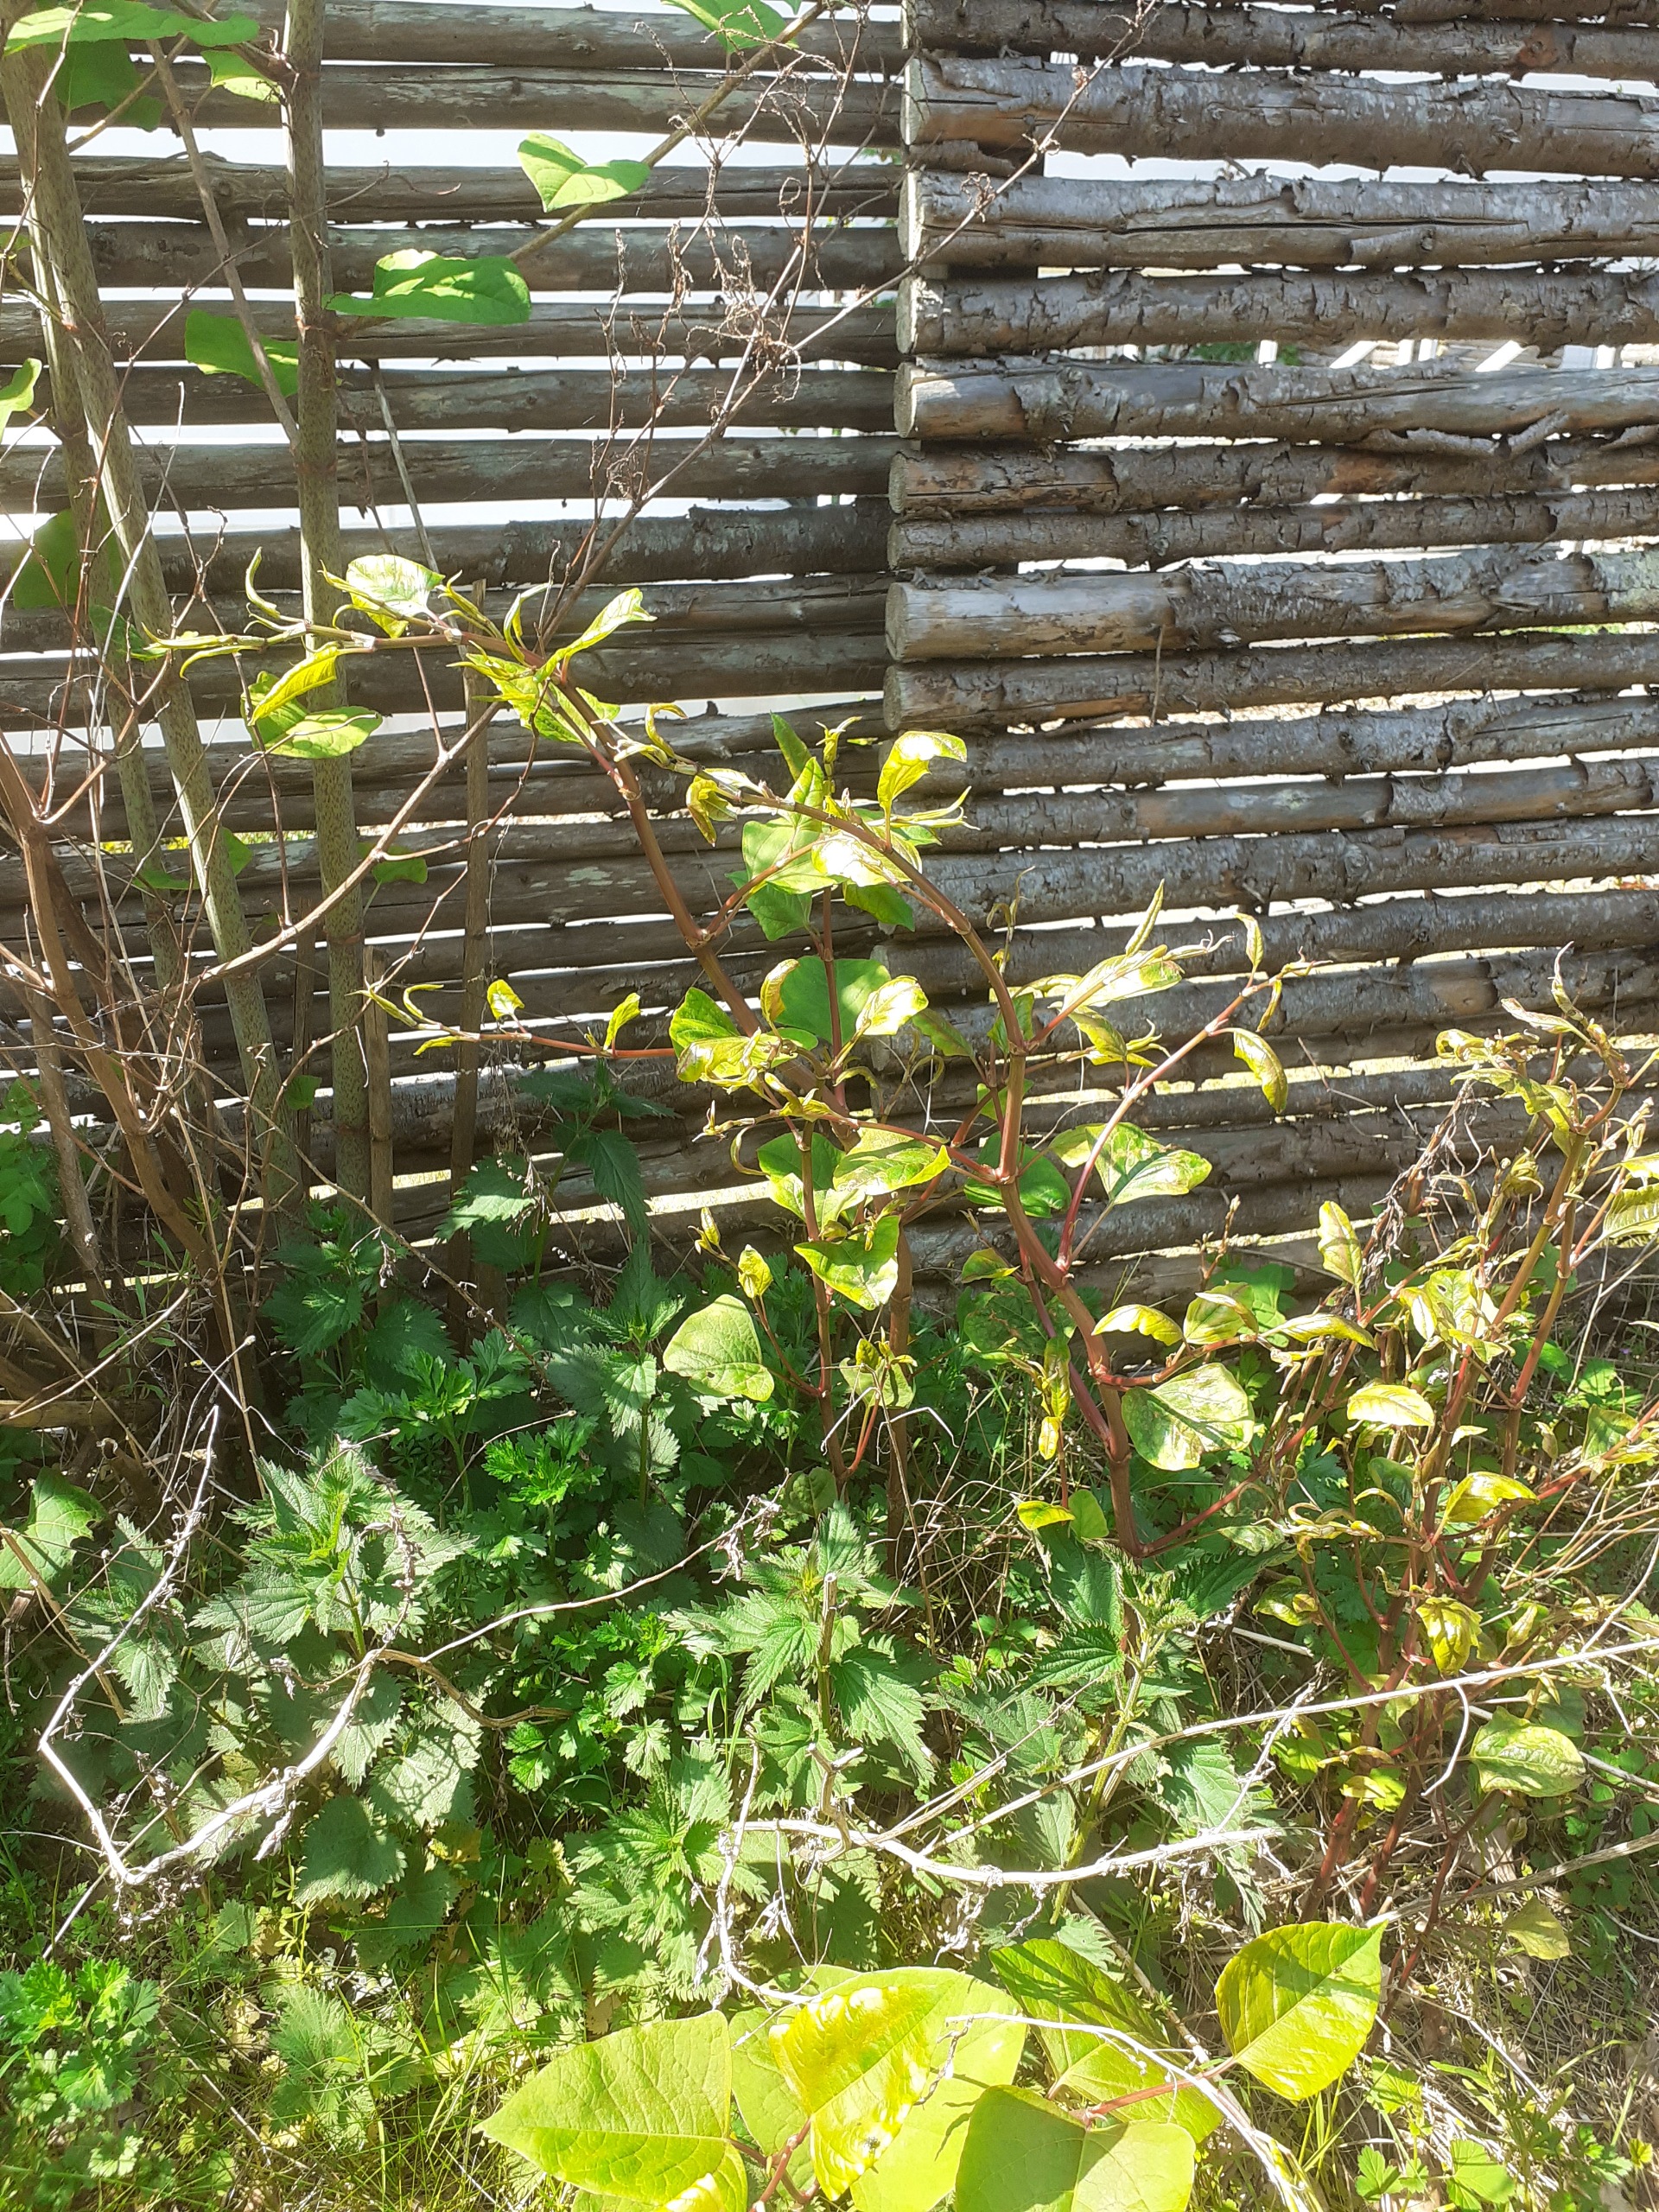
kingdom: Plantae
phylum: Tracheophyta
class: Magnoliopsida
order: Caryophyllales
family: Polygonaceae
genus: Reynoutria
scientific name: Reynoutria japonica
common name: Japan-pileurt
